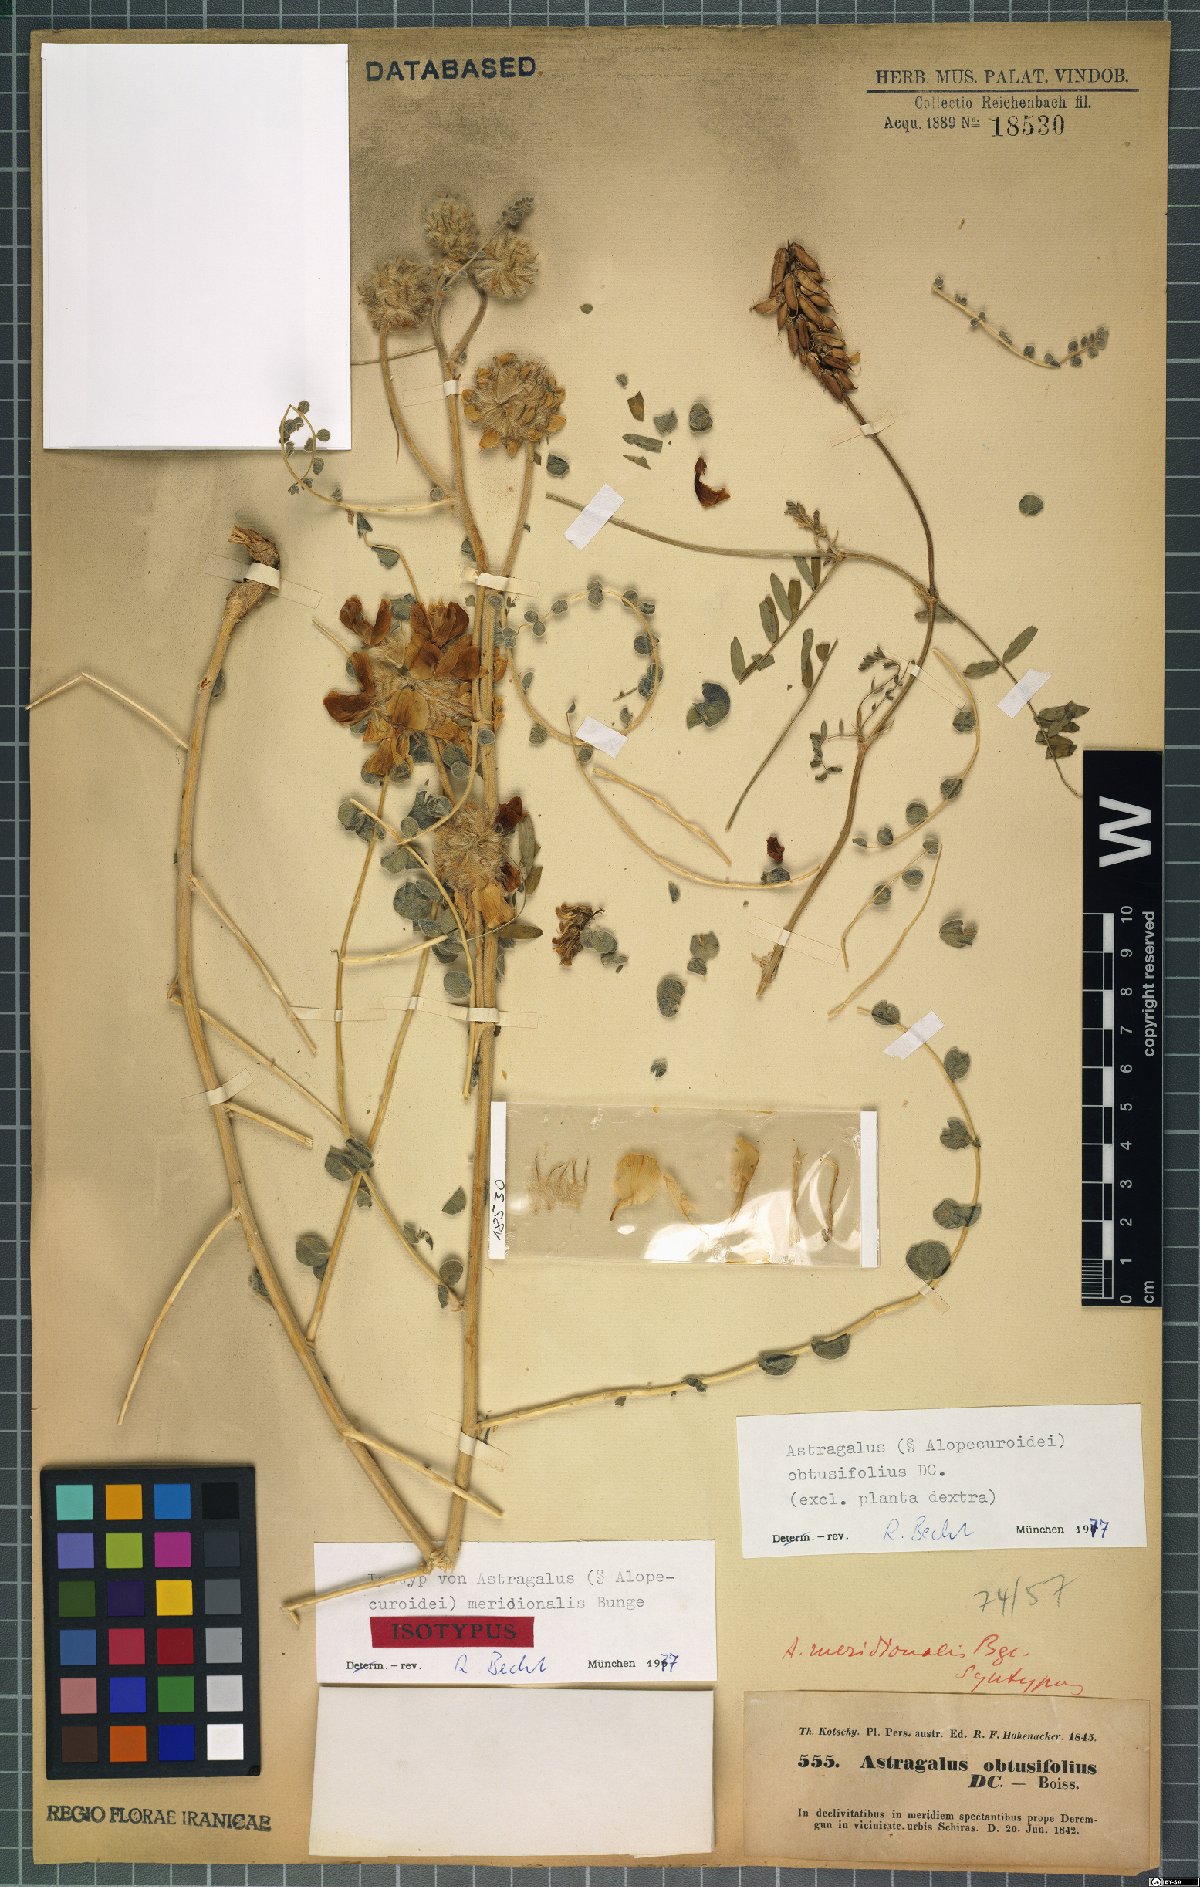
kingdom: Plantae
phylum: Tracheophyta
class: Magnoliopsida
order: Fabales
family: Fabaceae
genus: Astragalus
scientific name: Astragalus obtusifolius
